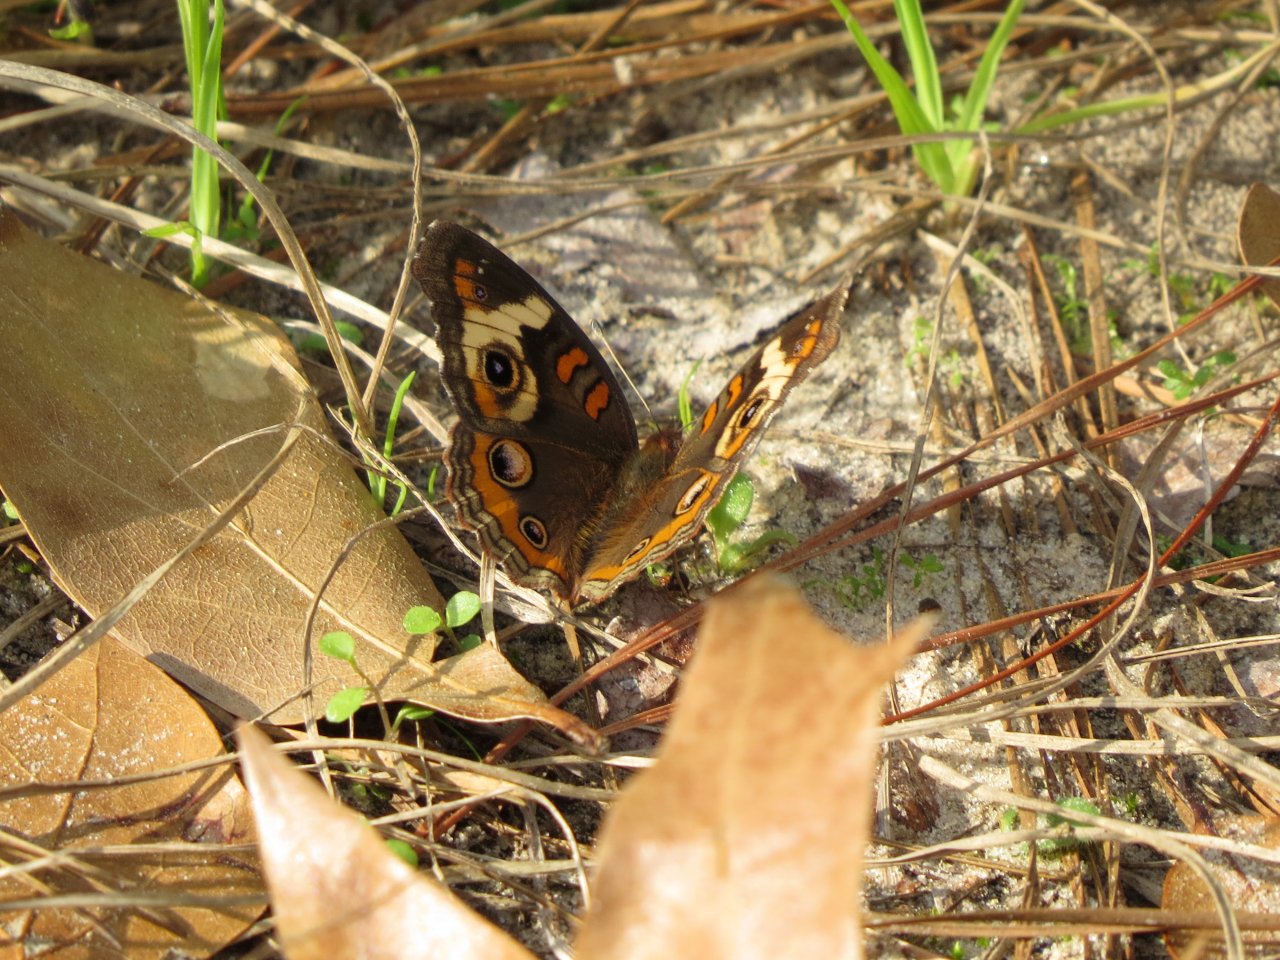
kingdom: Animalia
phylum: Arthropoda
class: Insecta
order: Lepidoptera
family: Nymphalidae
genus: Junonia
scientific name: Junonia coenia
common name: Common Buckeye
